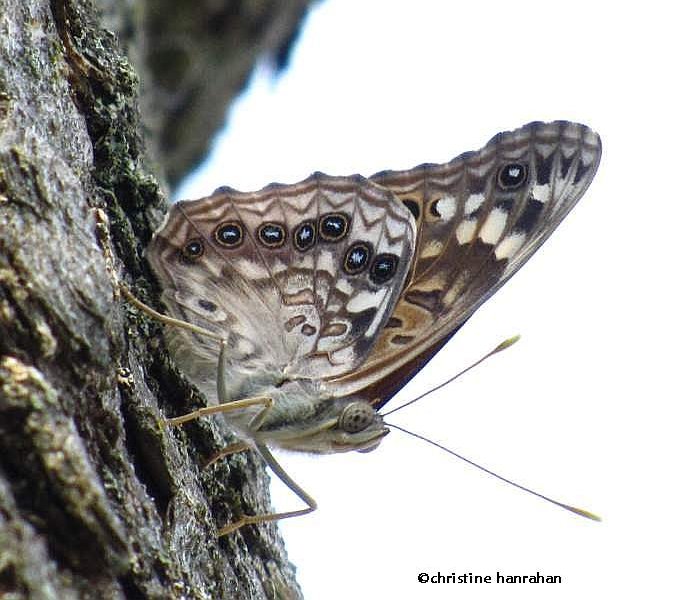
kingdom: Animalia
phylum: Arthropoda
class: Insecta
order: Lepidoptera
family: Nymphalidae
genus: Asterocampa
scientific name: Asterocampa celtis
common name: Hackberry Emperor
